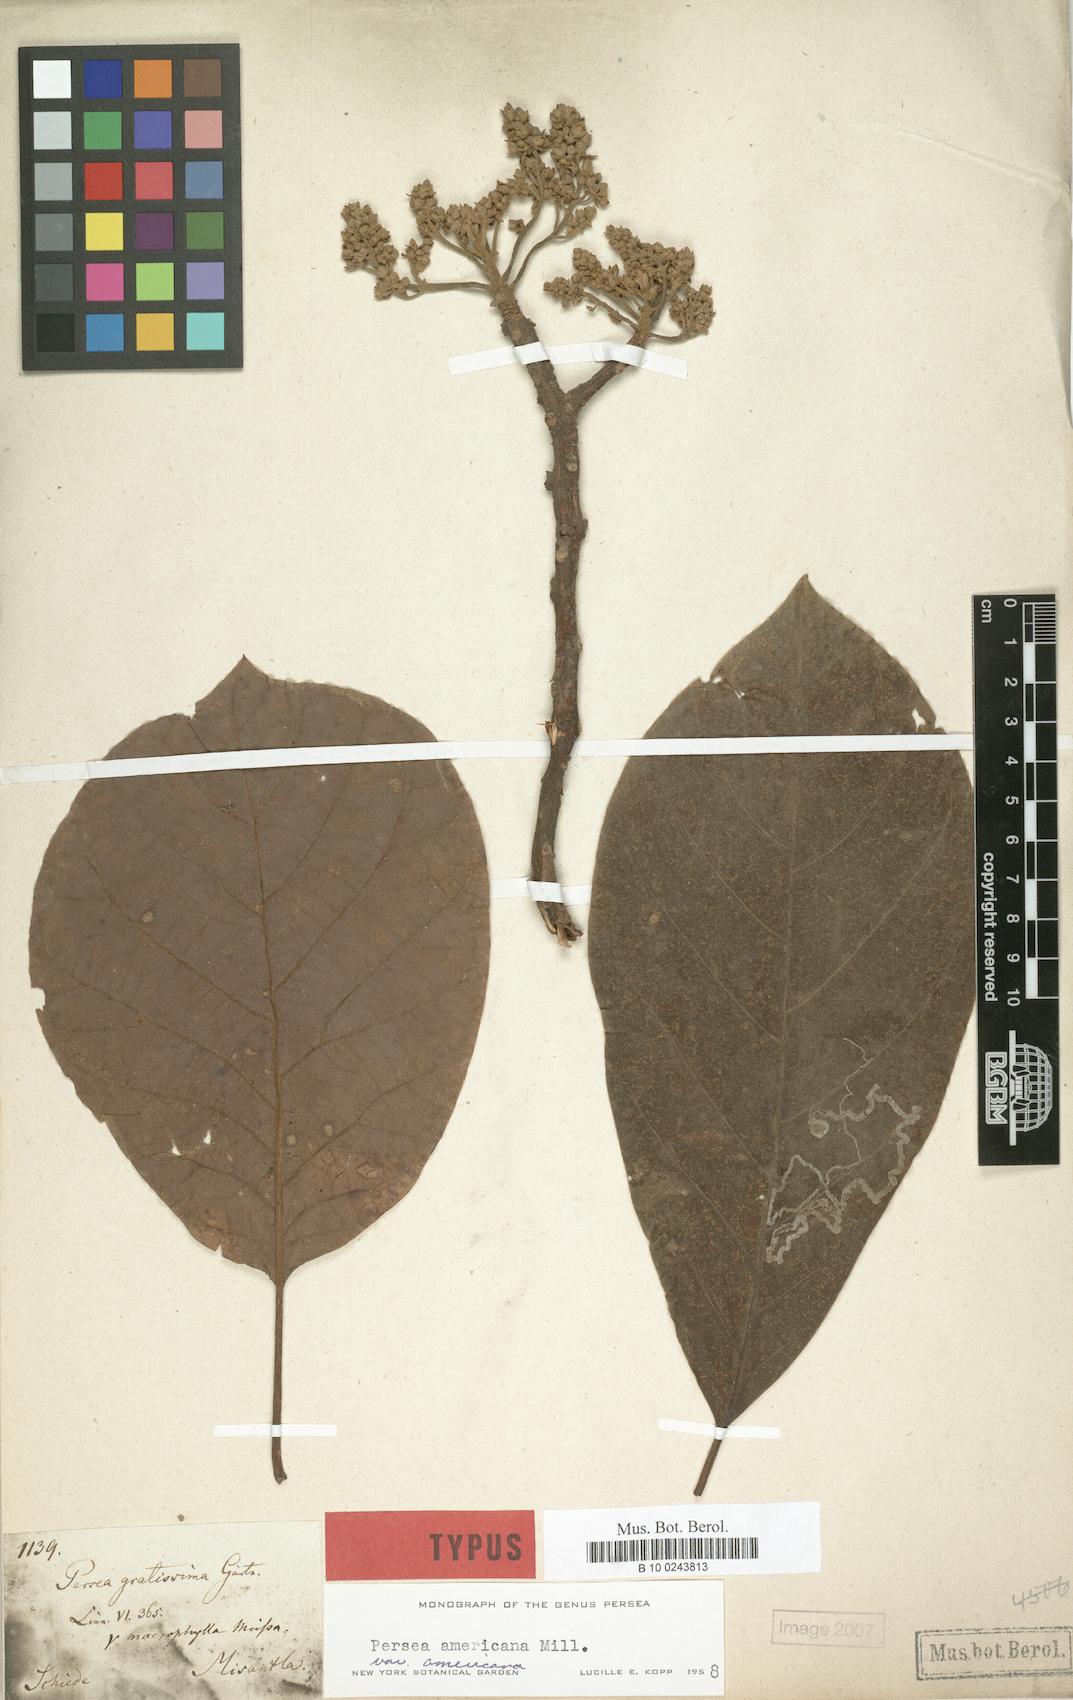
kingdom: Plantae
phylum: Tracheophyta
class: Magnoliopsida
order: Laurales
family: Lauraceae
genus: Persea
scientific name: Persea americana
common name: Avocado
